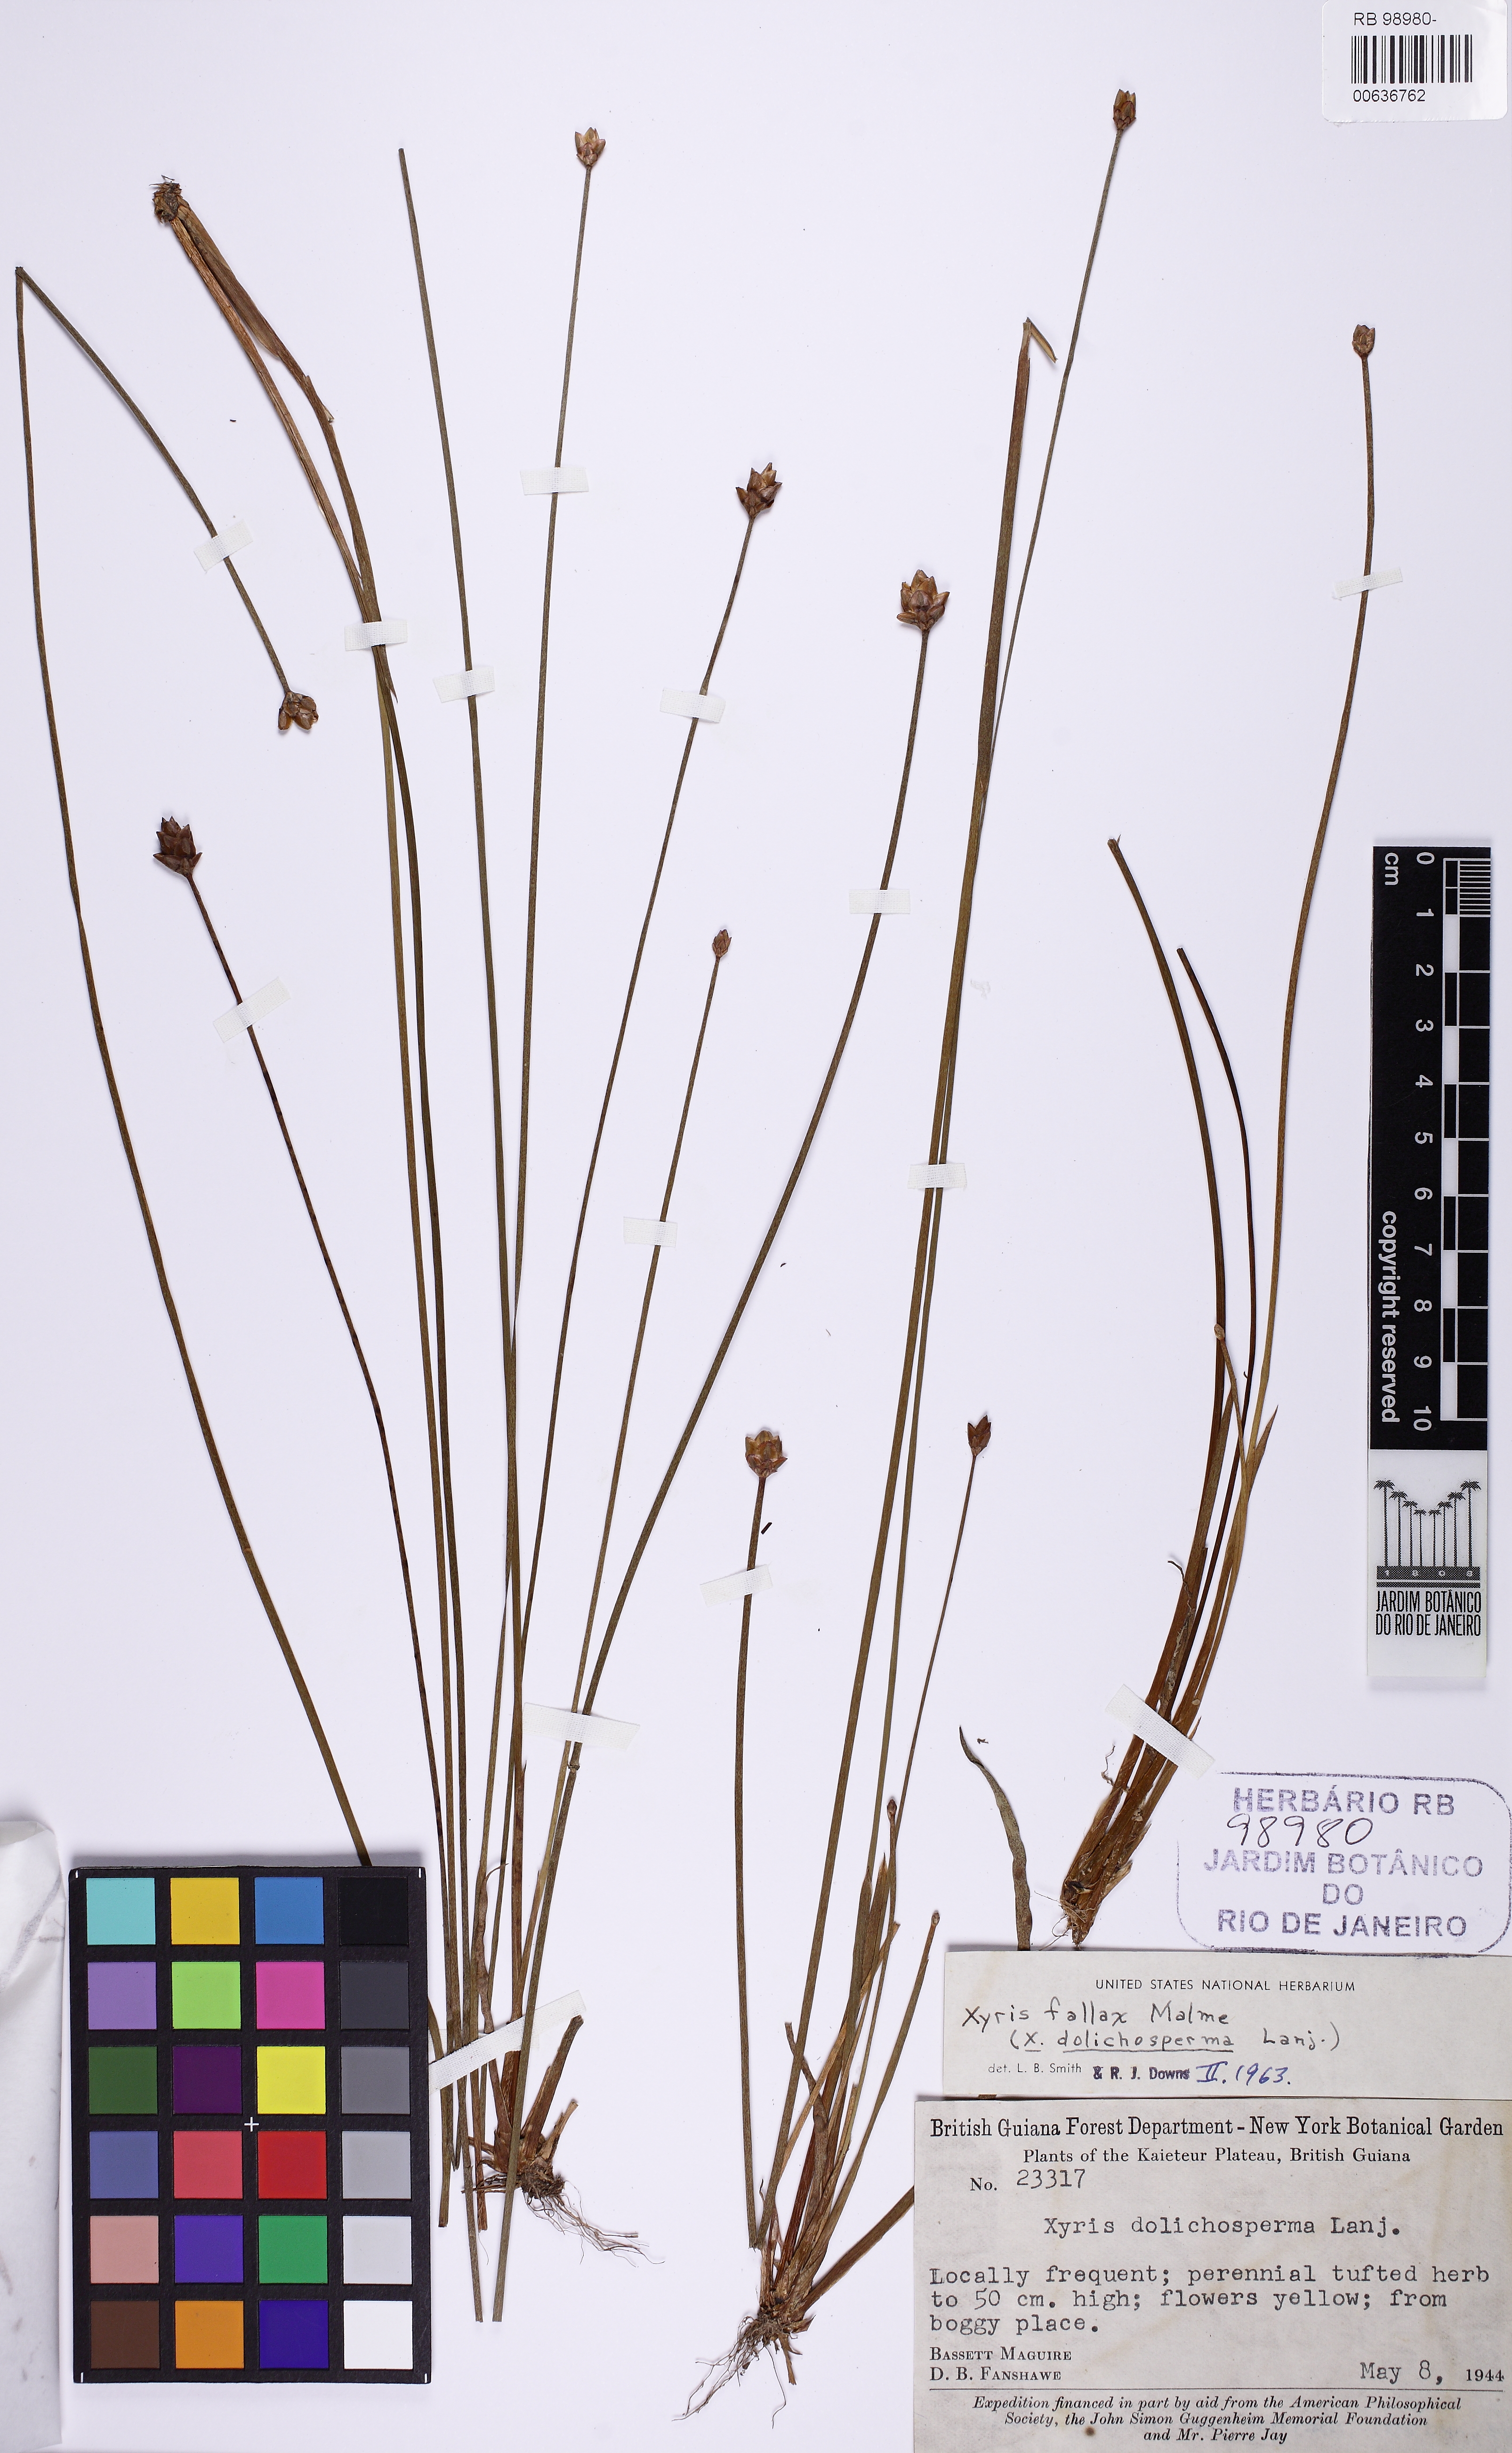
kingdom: Plantae
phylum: Tracheophyta
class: Liliopsida
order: Poales
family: Xyridaceae
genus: Xyris
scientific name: Xyris fallax
